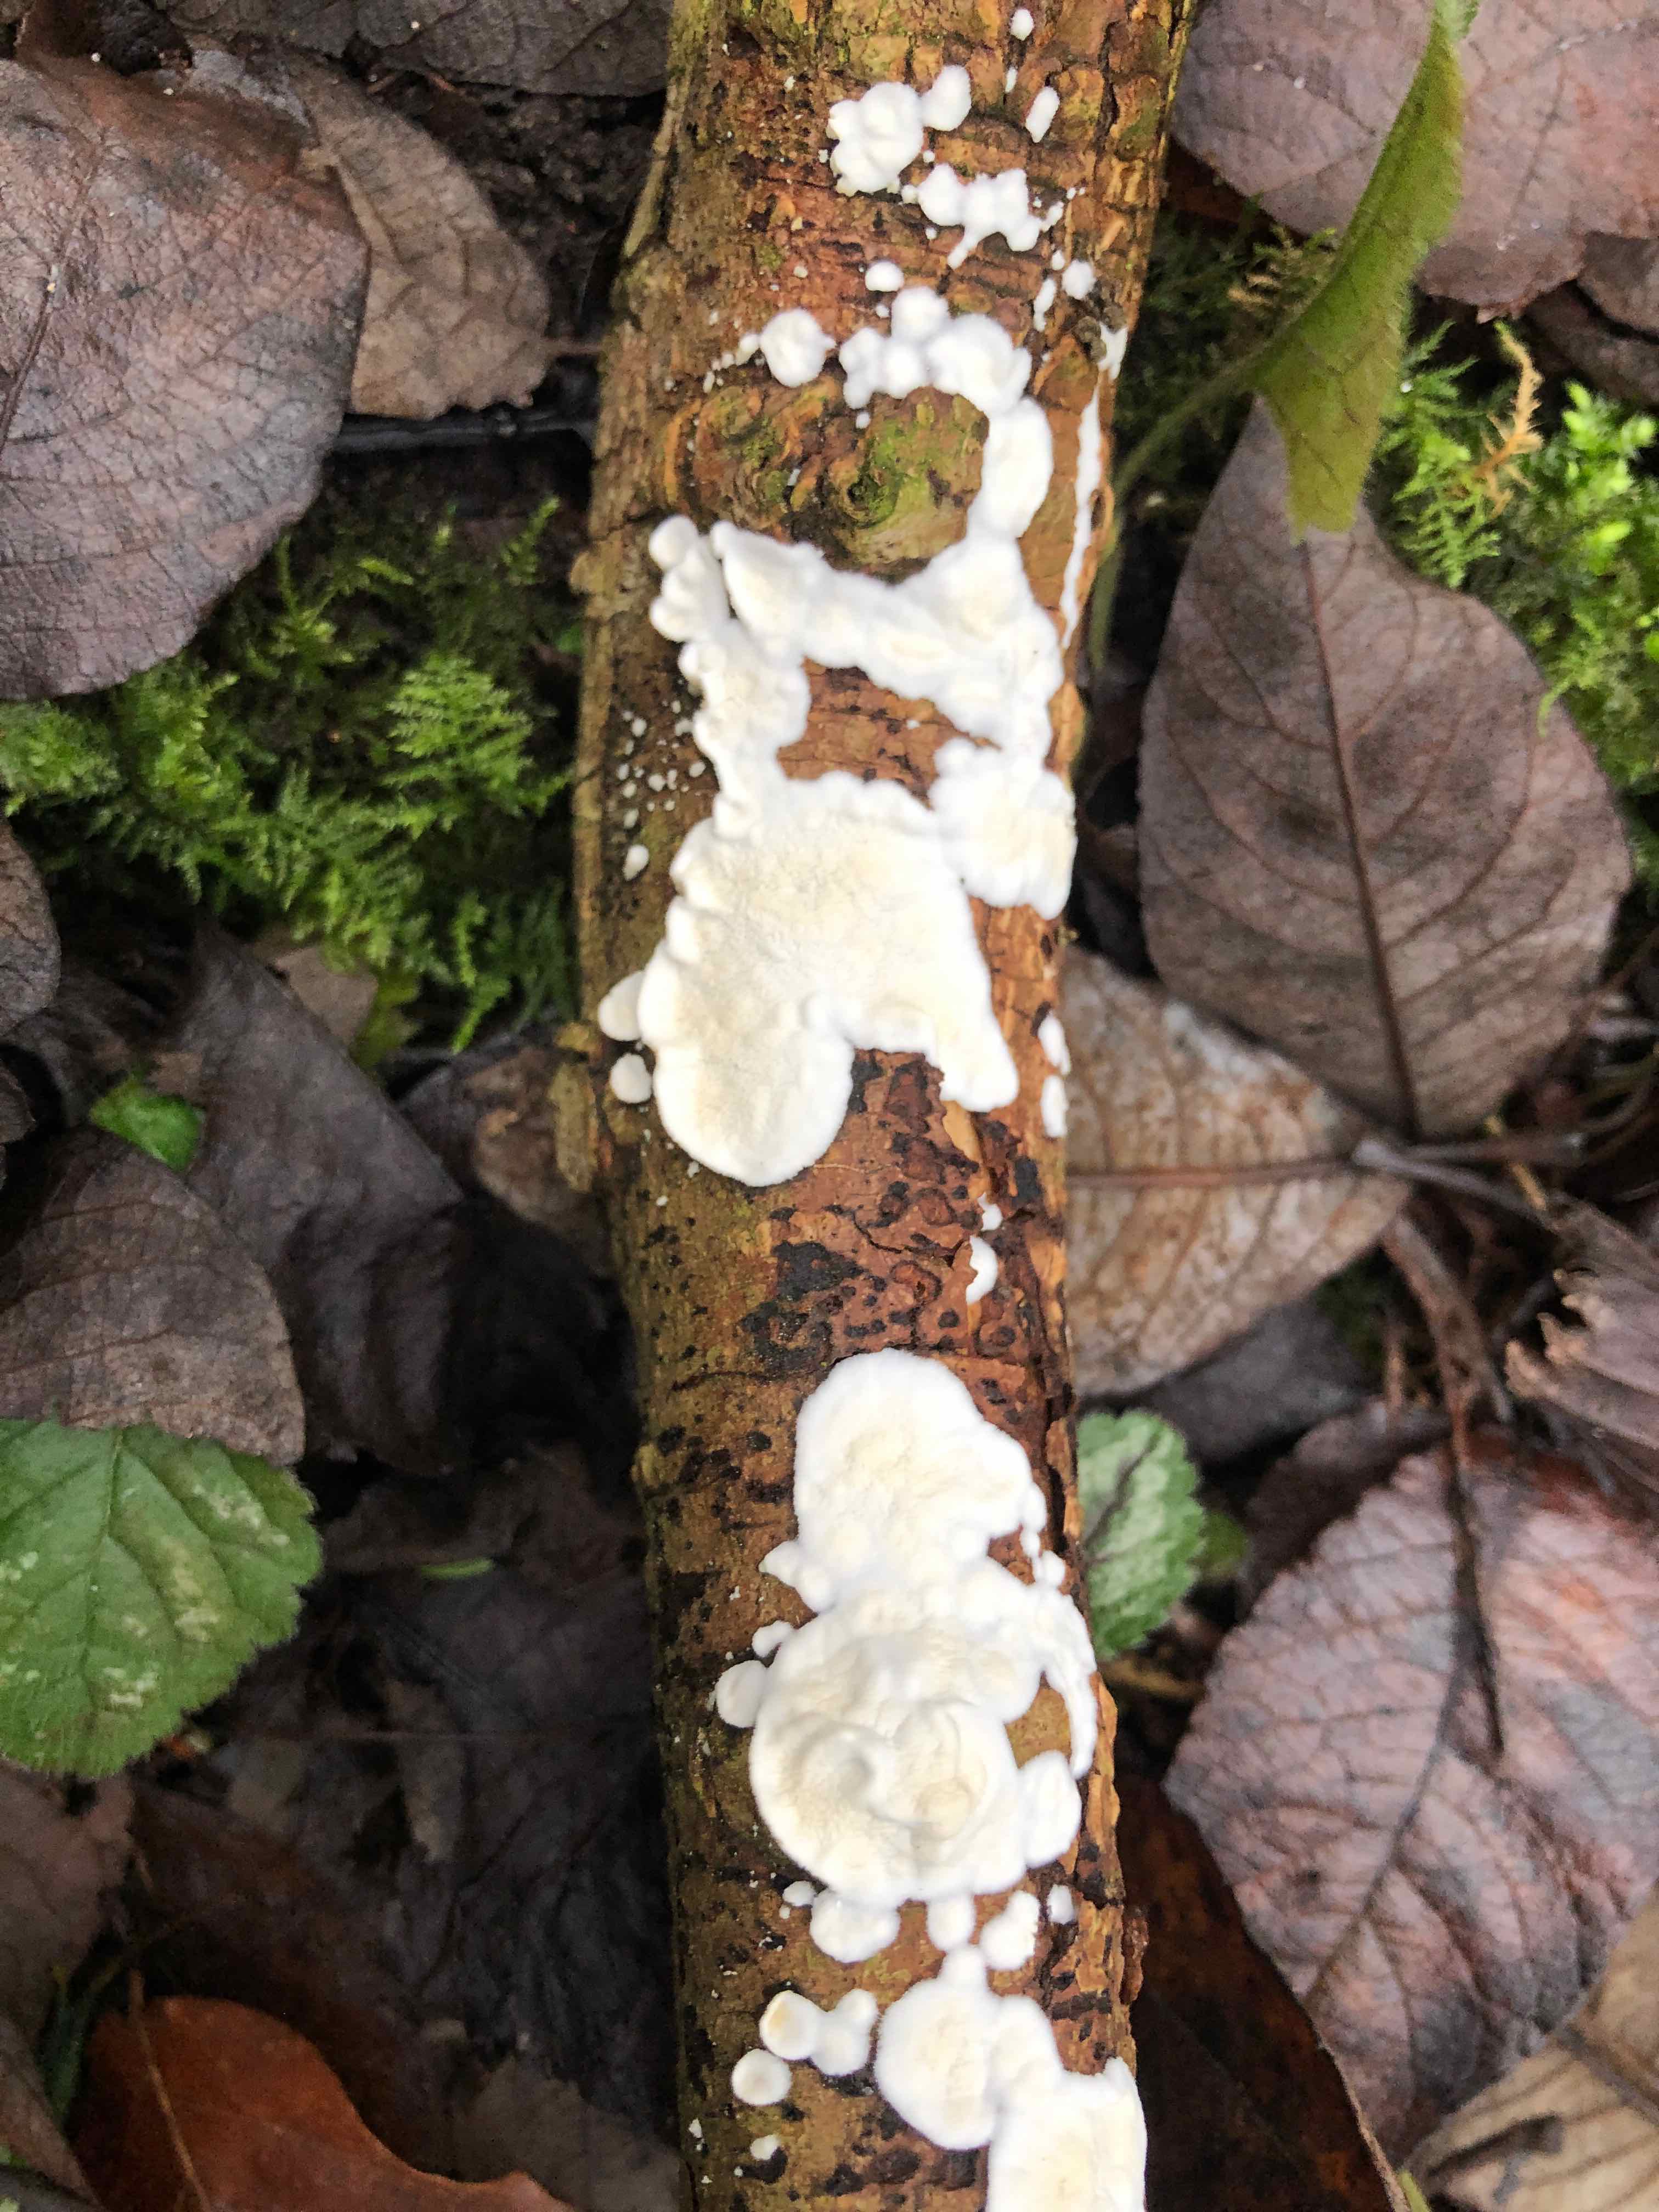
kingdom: Fungi
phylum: Basidiomycota
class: Agaricomycetes
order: Polyporales
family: Irpicaceae
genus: Byssomerulius
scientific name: Byssomerulius corium
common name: læder-åresvamp
